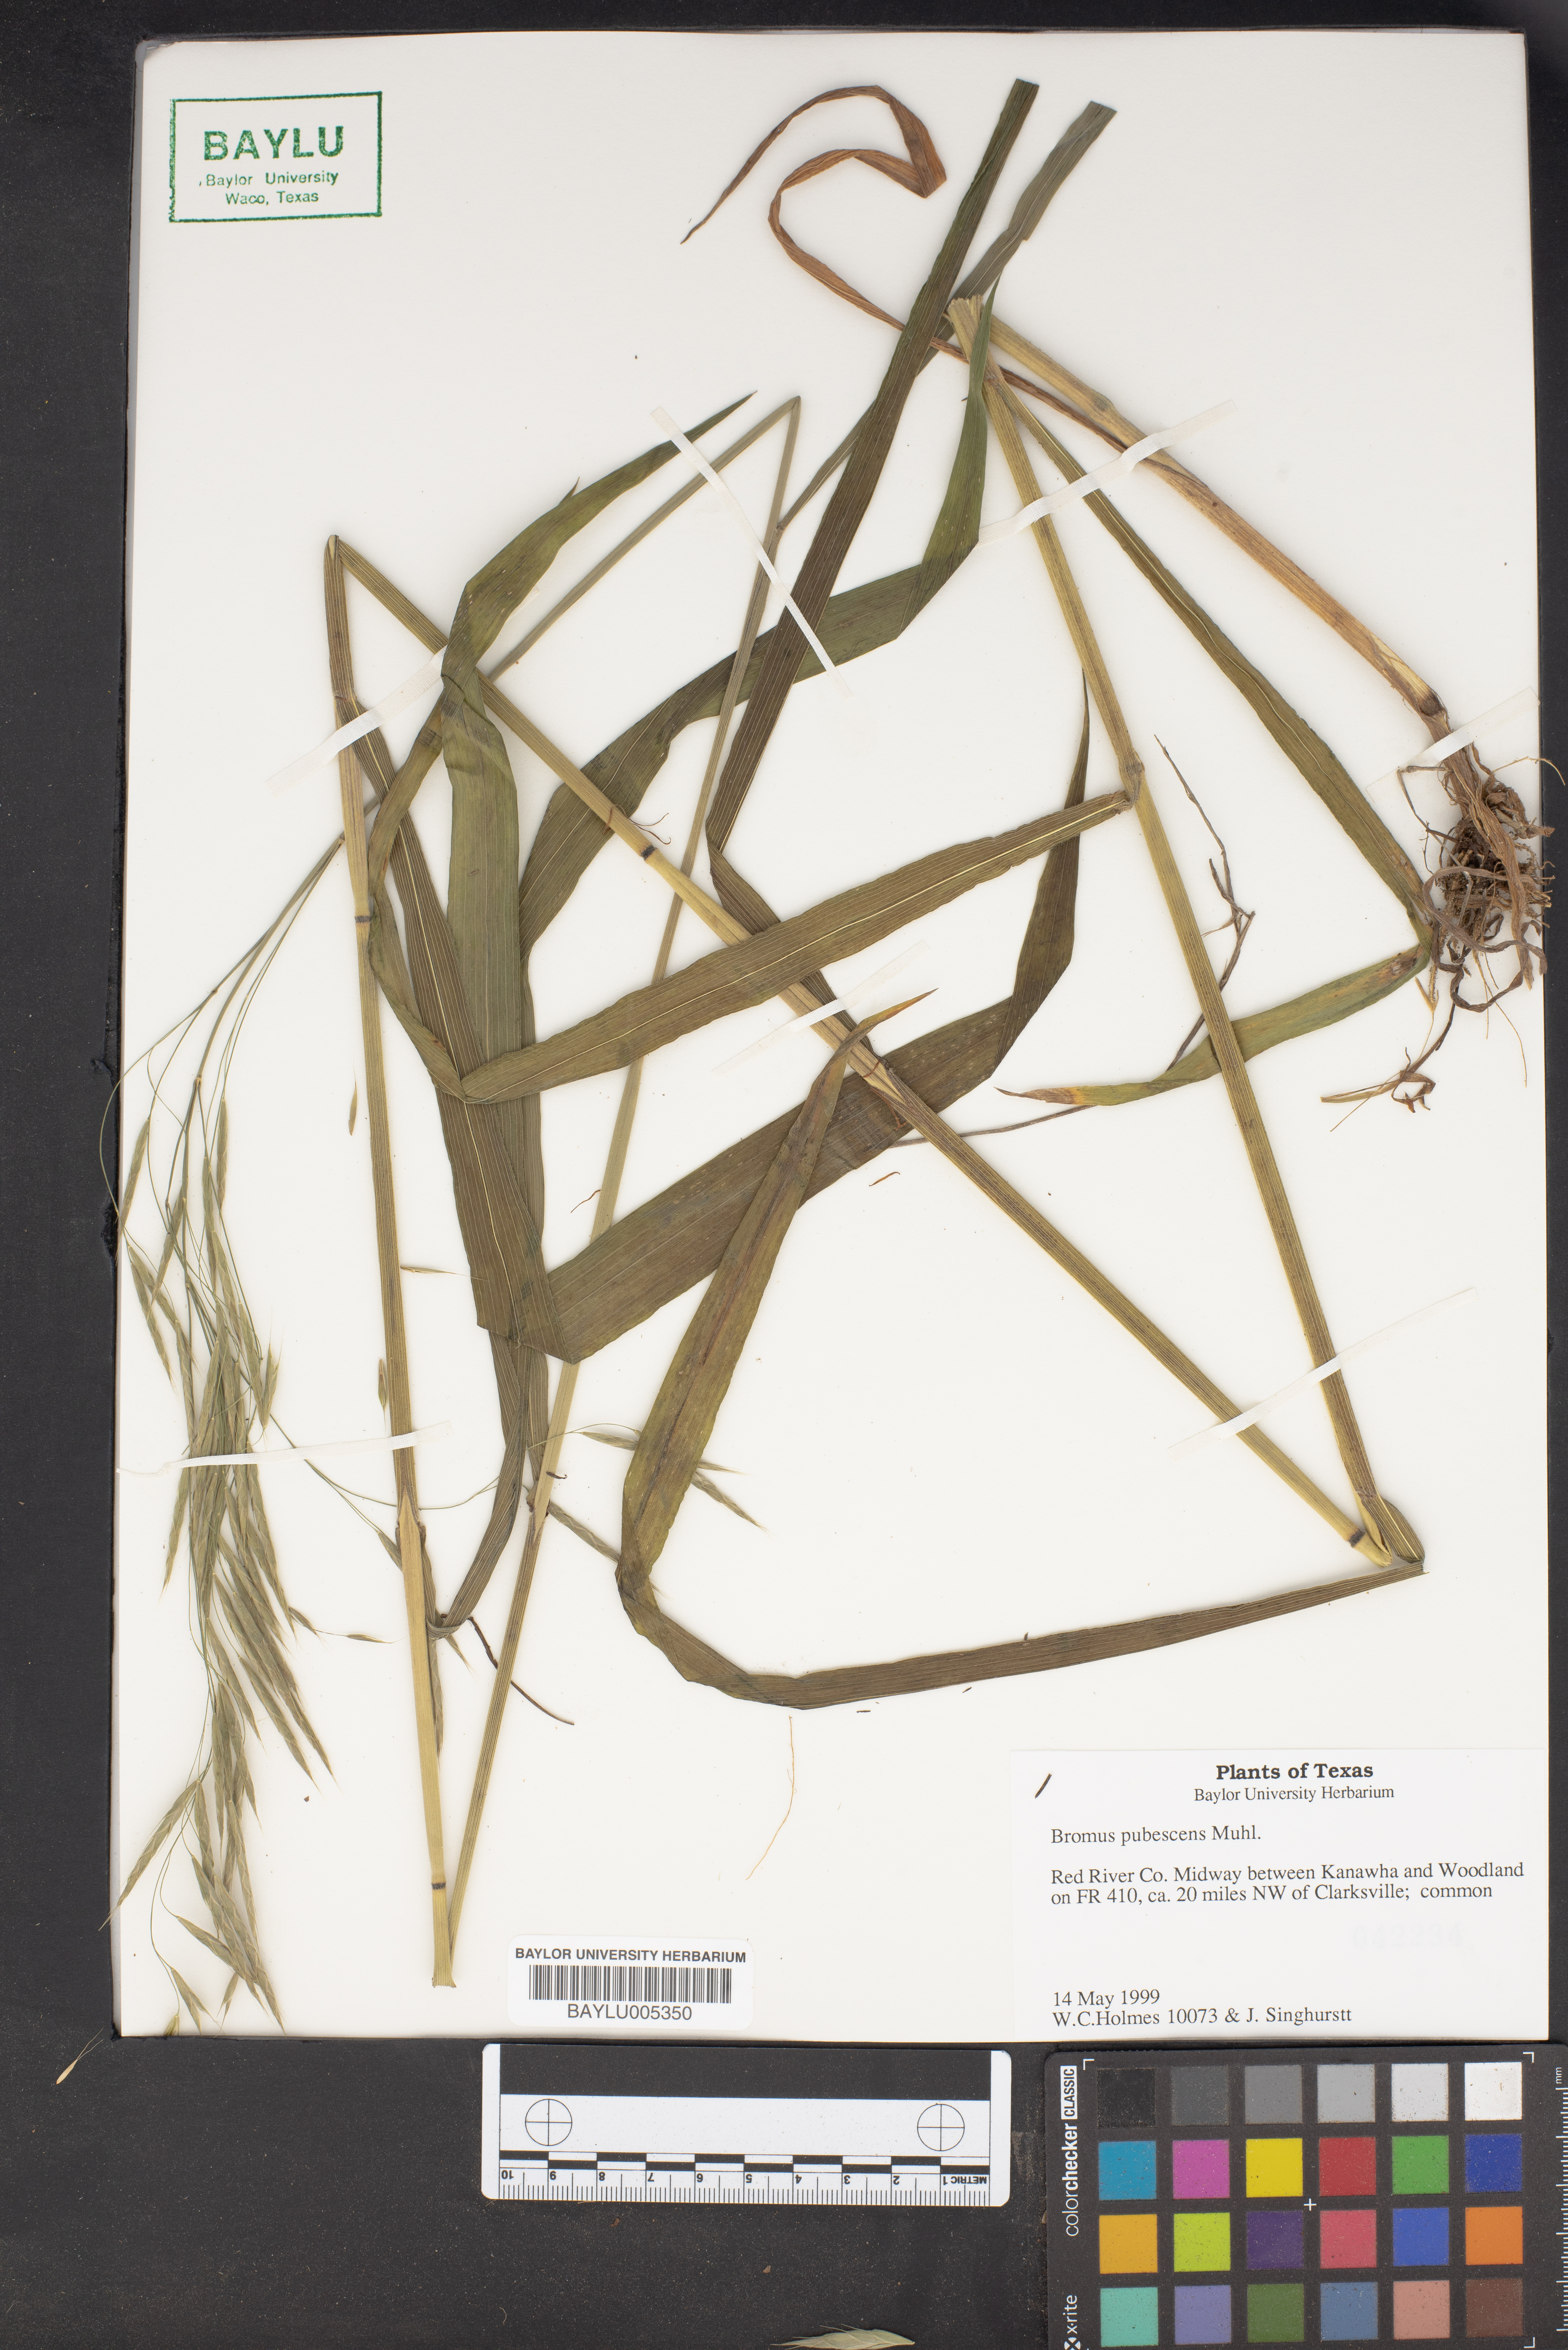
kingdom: Plantae
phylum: Tracheophyta
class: Liliopsida
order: Poales
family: Poaceae
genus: Bromus
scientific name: Bromus pubescens
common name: Hairy wood brome grass
